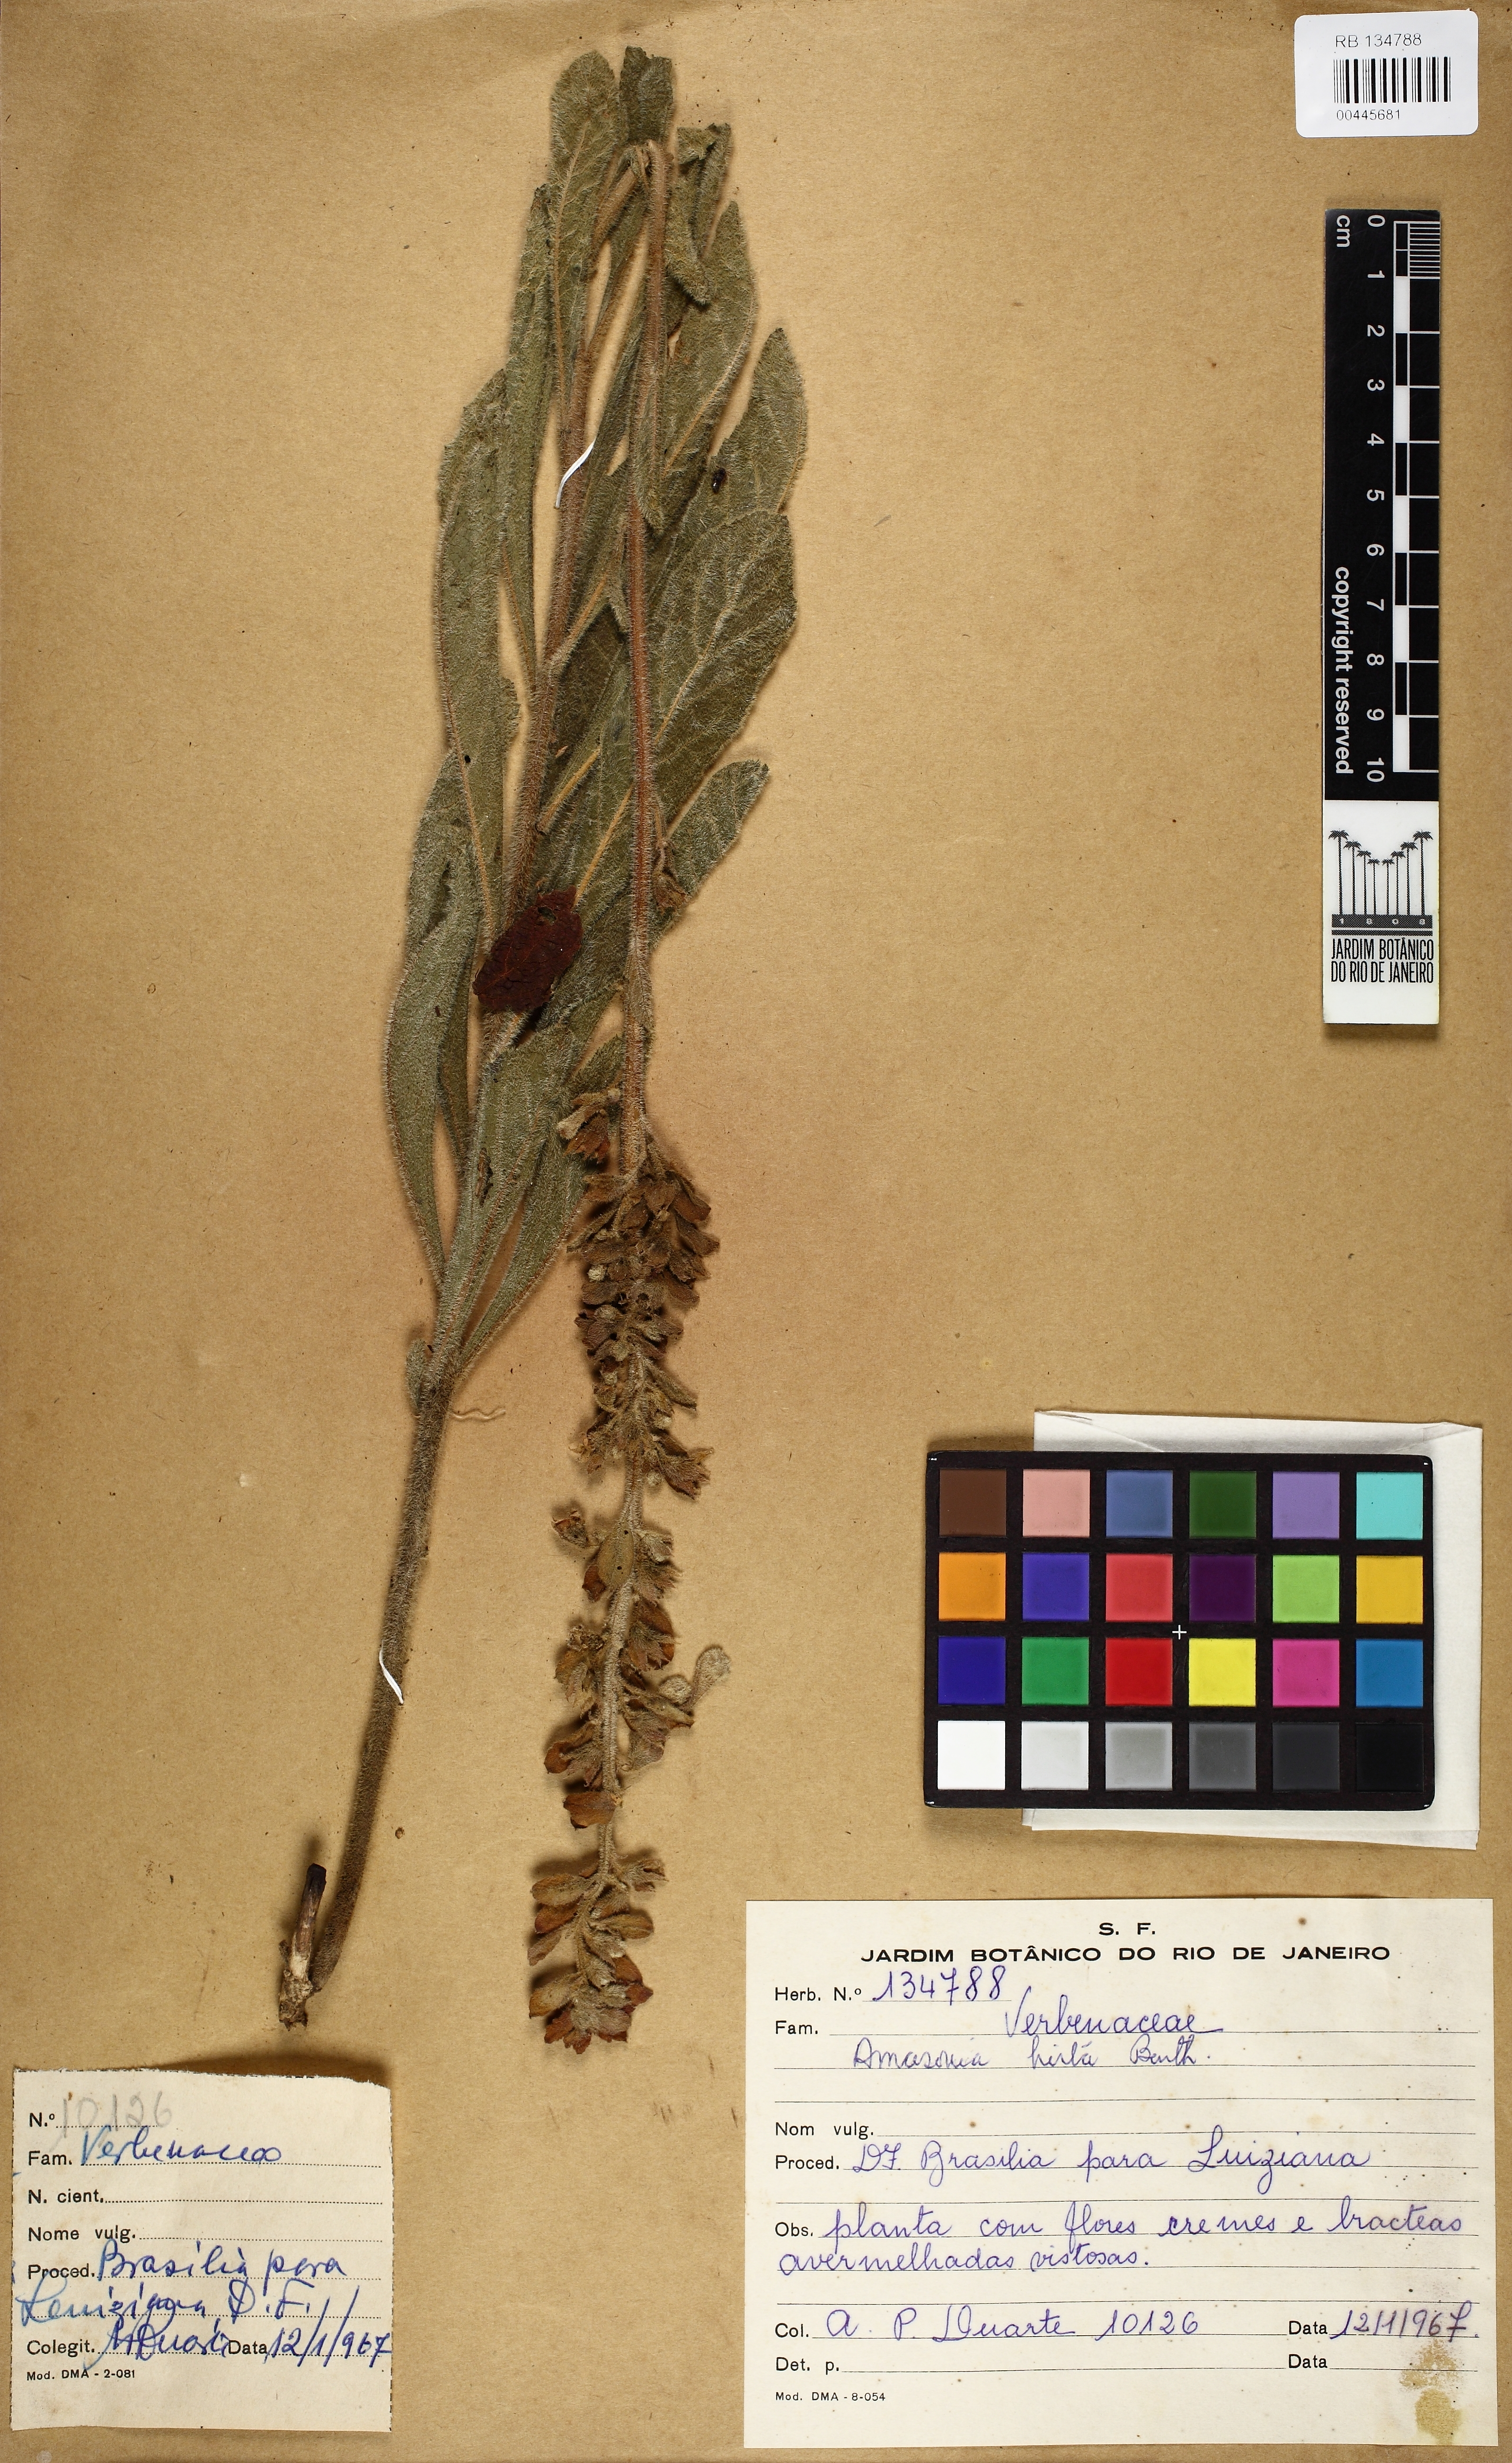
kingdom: Plantae
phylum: Tracheophyta
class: Magnoliopsida
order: Lamiales
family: Lamiaceae
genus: Amasonia
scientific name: Amasonia hirta
